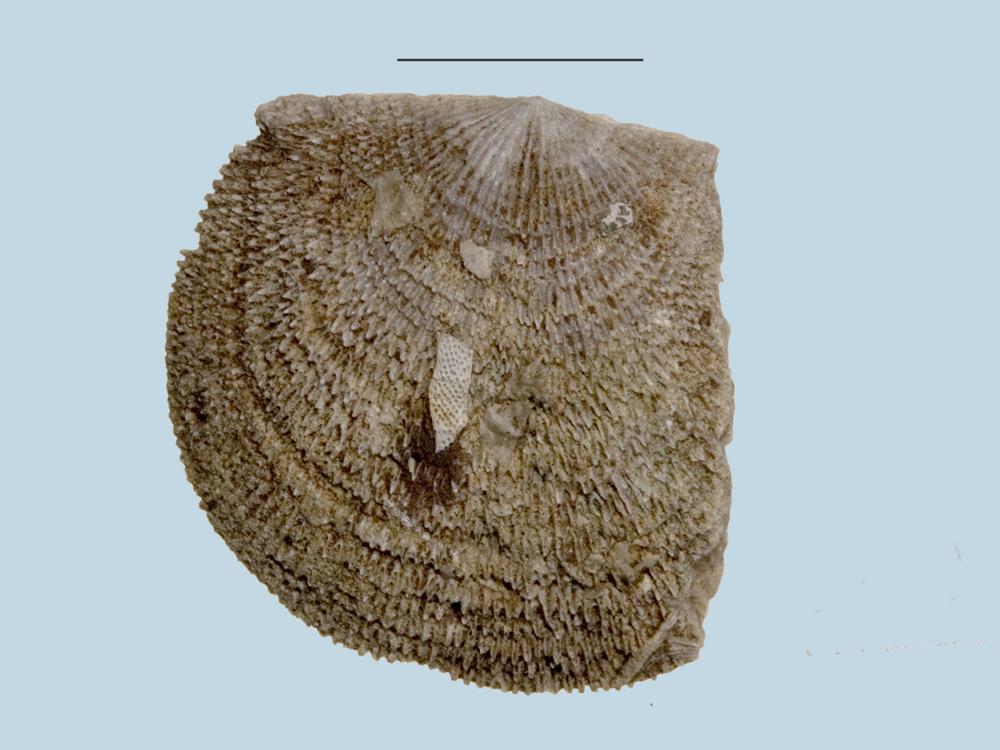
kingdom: Animalia
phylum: Brachiopoda
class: Rhynchonellata
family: Clitambonitidae
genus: Clitambonites
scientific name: Clitambonites squamatus
